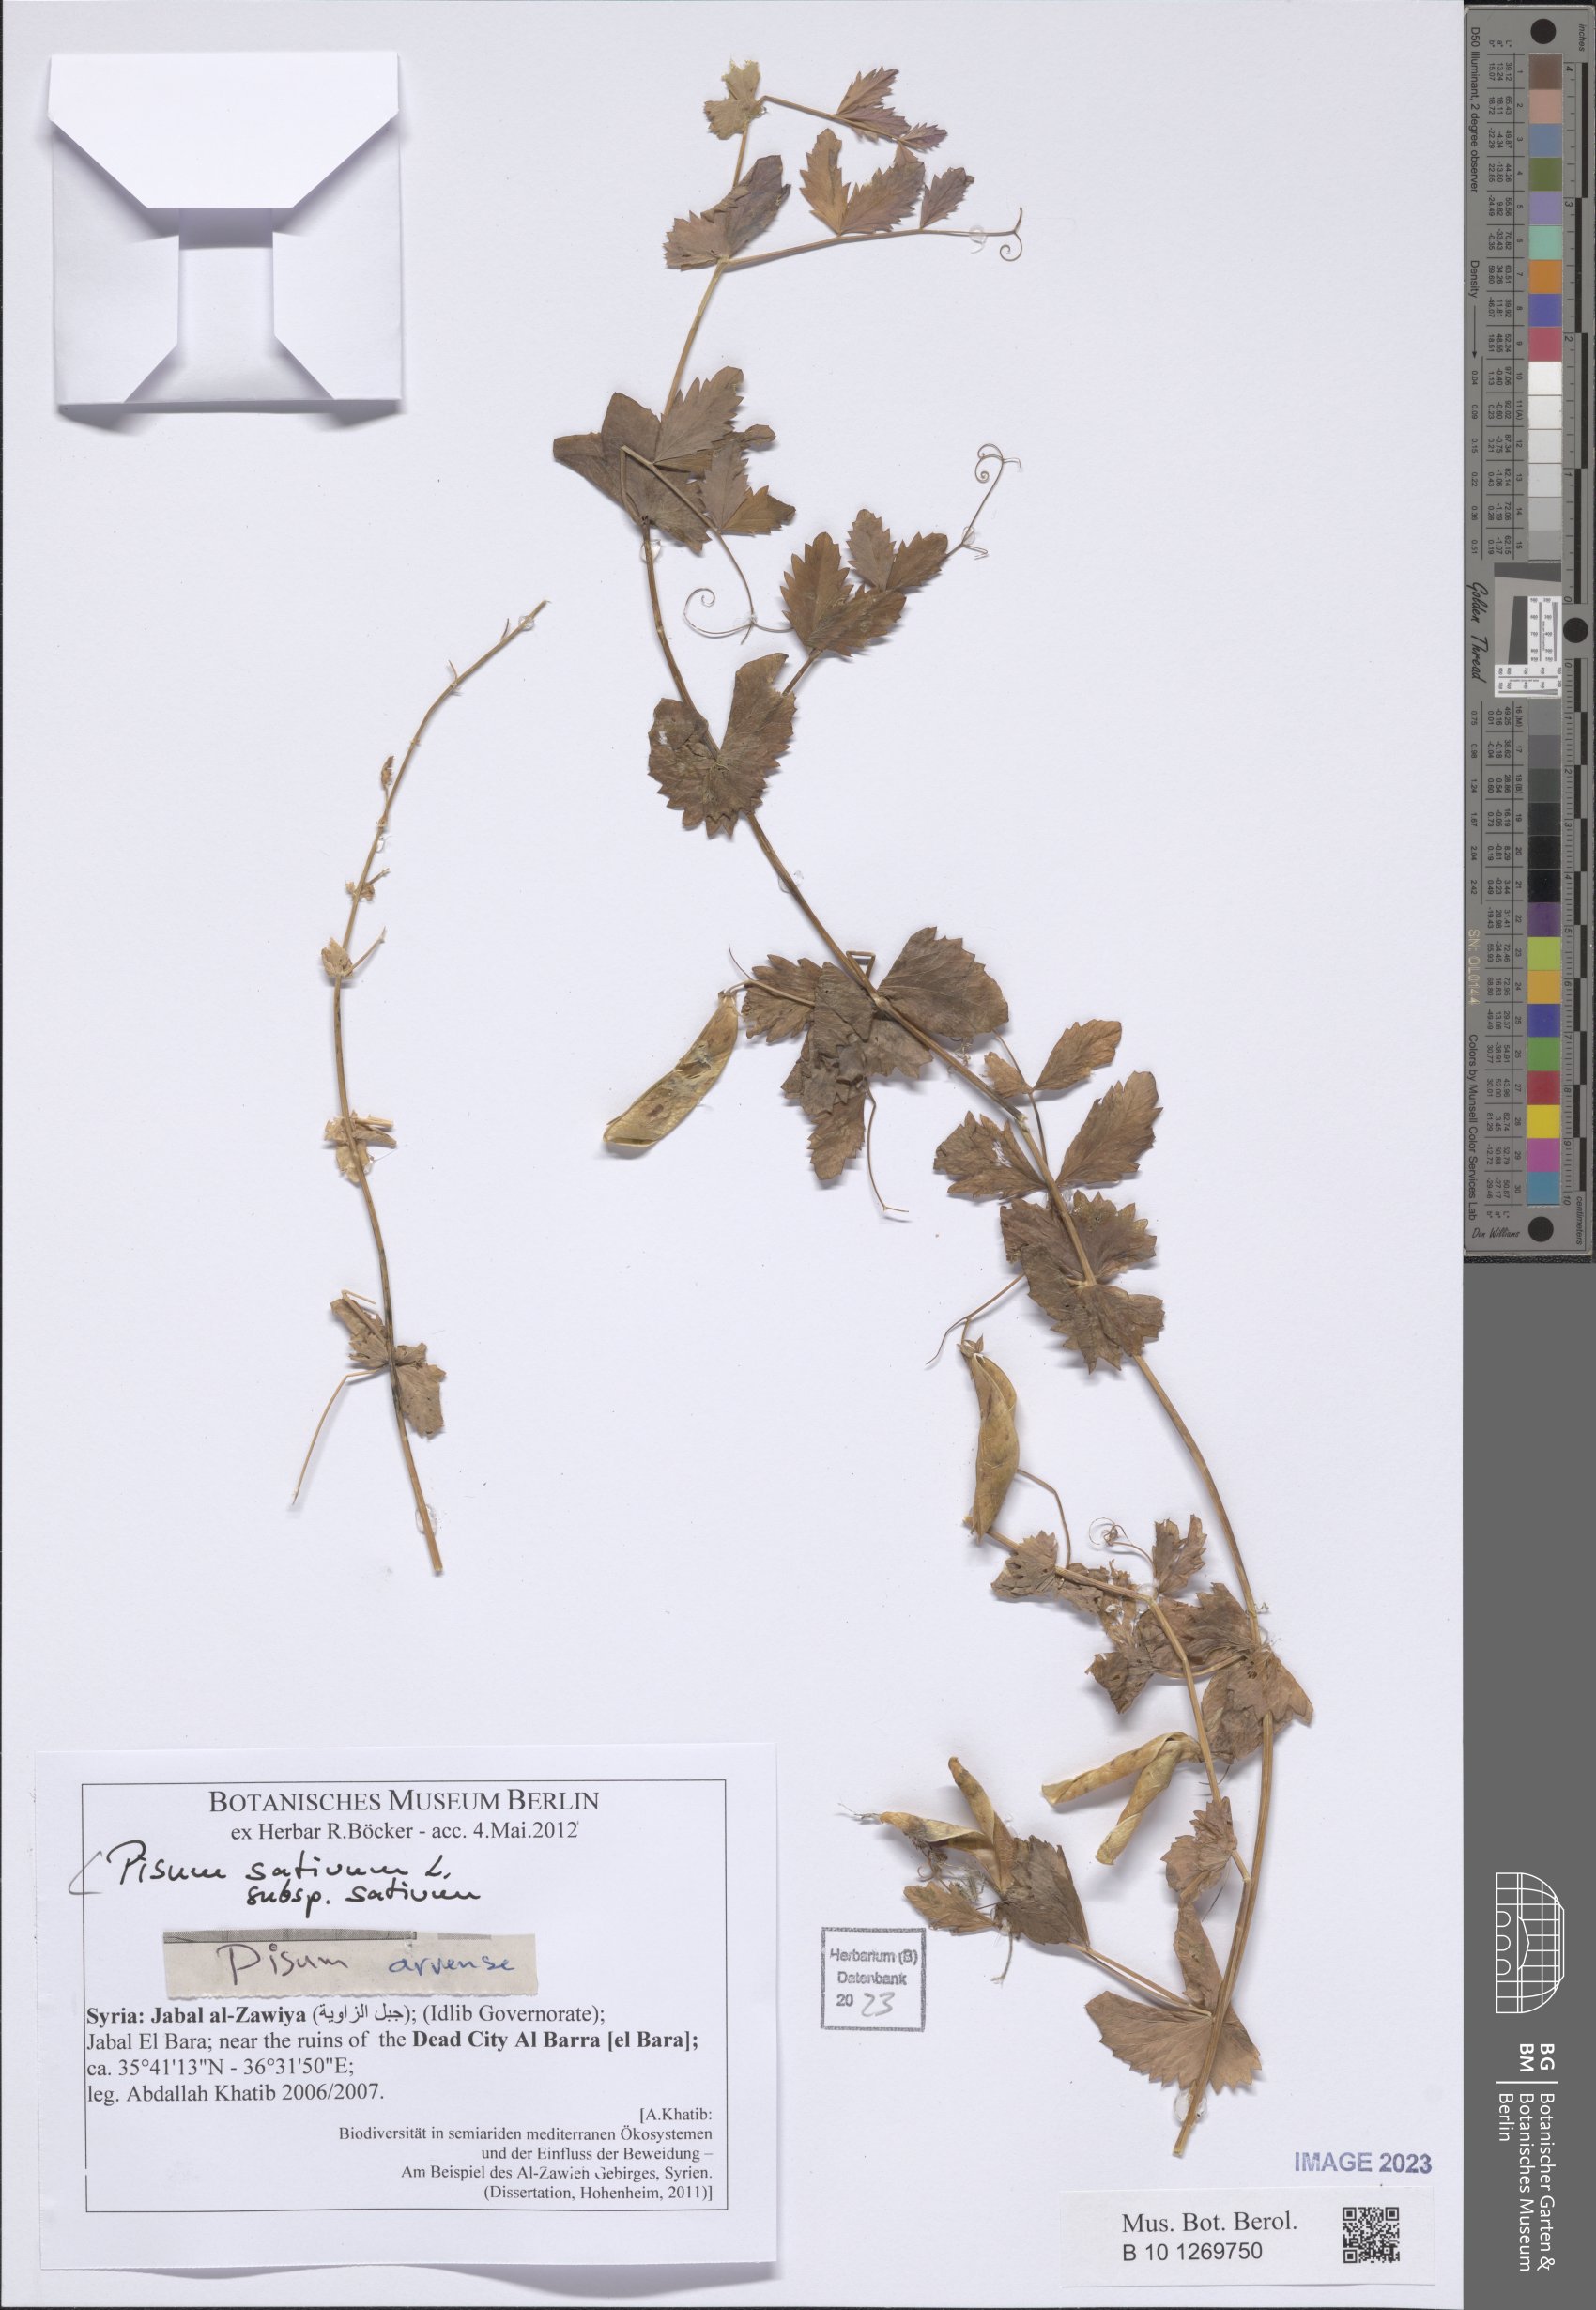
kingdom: Plantae
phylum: Tracheophyta
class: Magnoliopsida
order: Fabales
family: Fabaceae
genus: Lathyrus
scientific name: Lathyrus oleraceus
